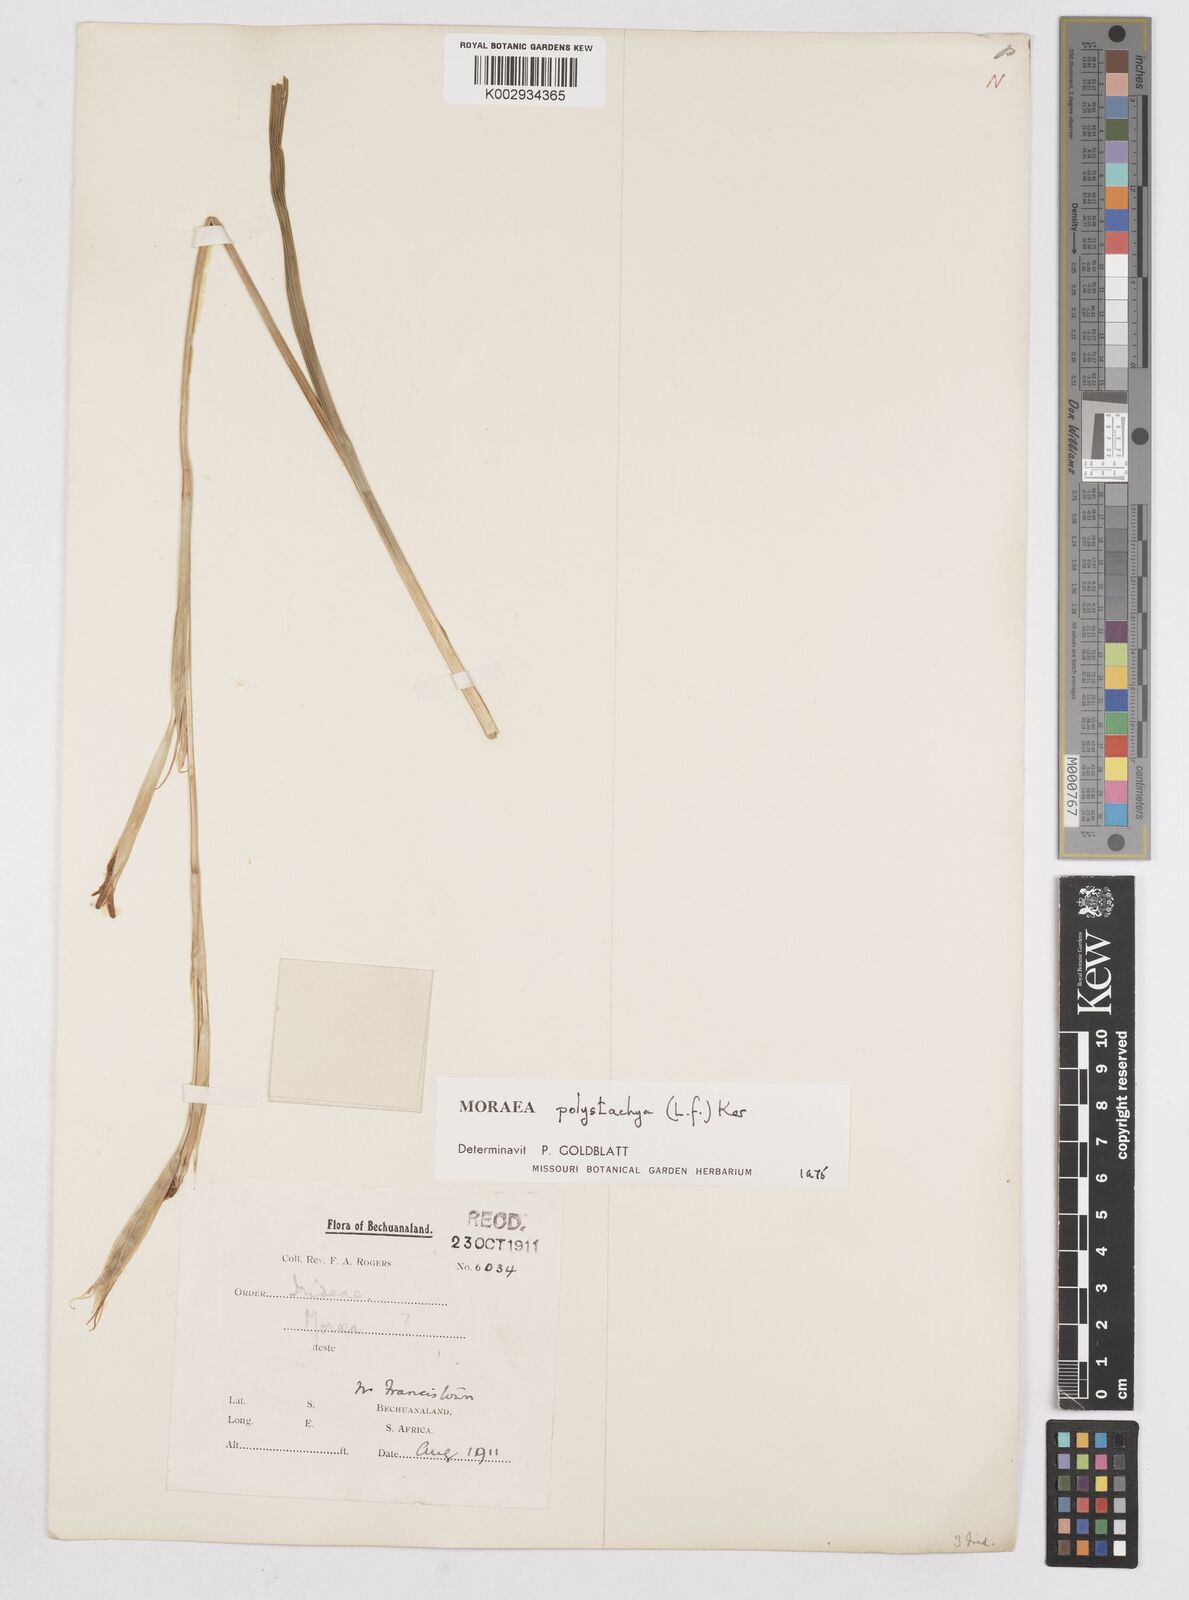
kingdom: Plantae
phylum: Tracheophyta
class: Liliopsida
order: Asparagales
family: Iridaceae
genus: Moraea
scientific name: Moraea polystachya
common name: Blue-tulip
